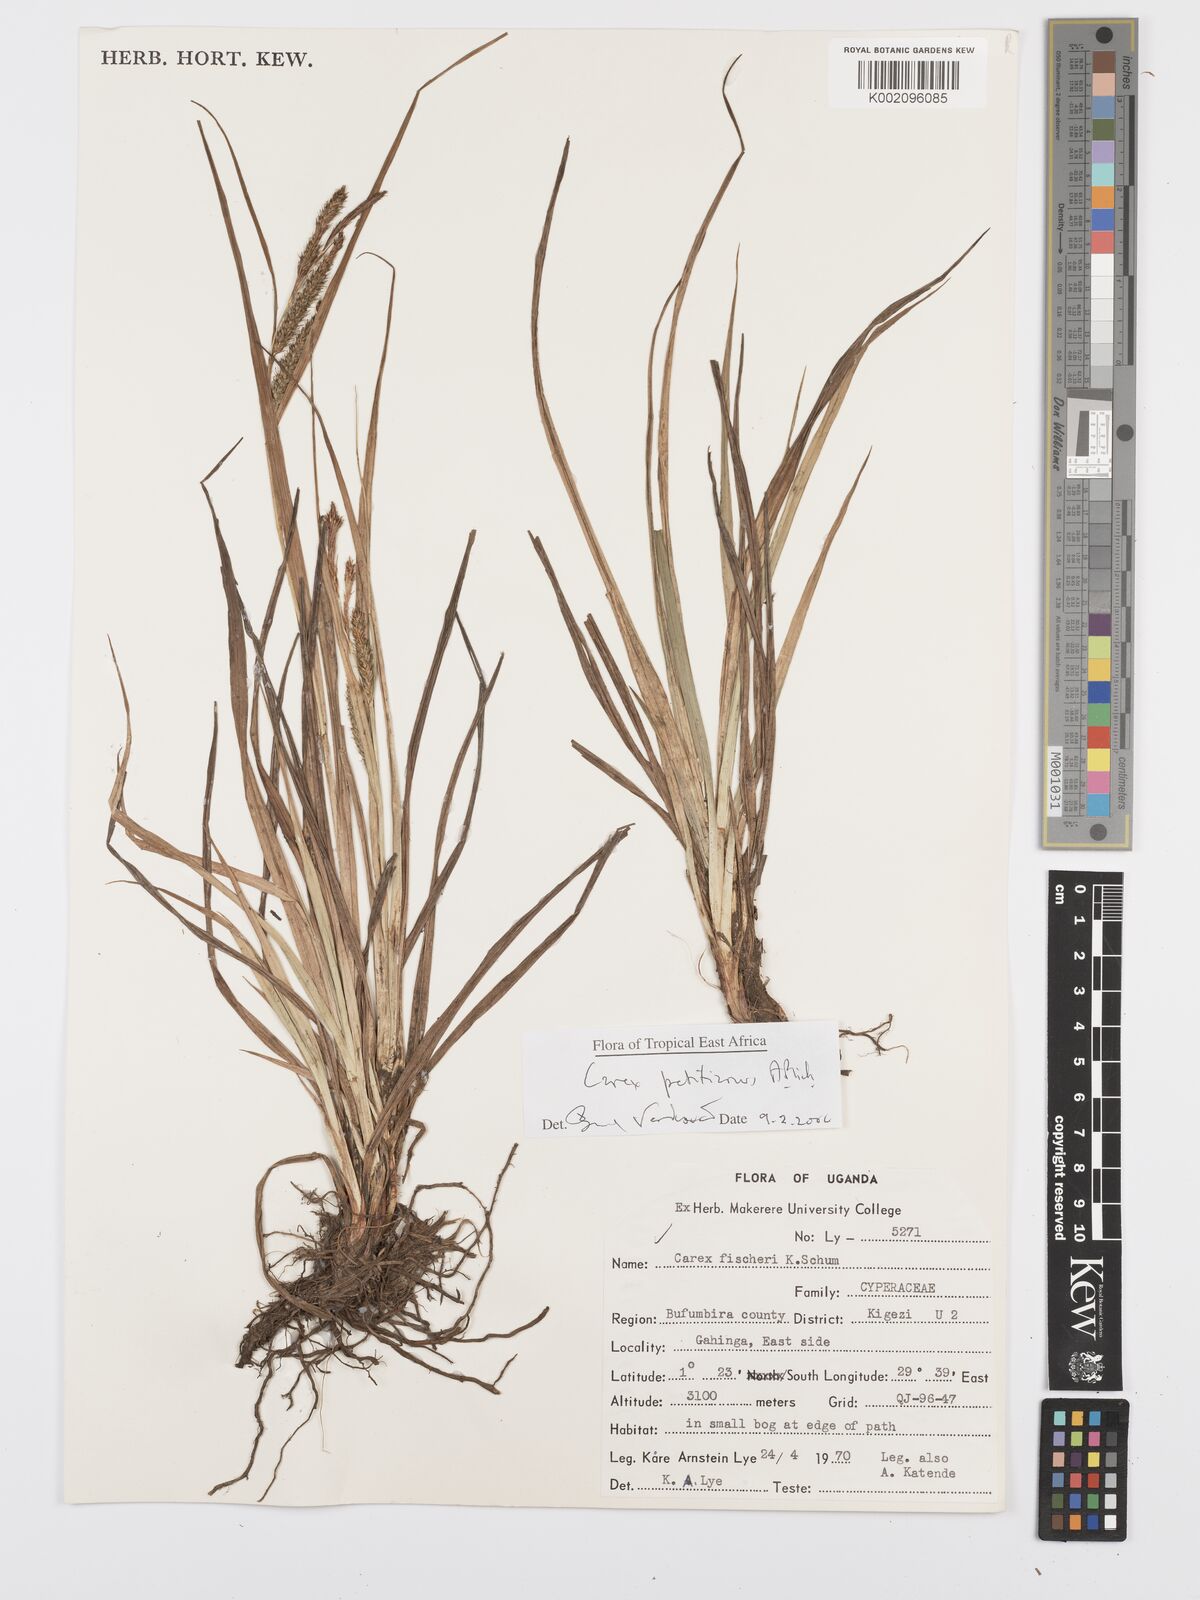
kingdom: Plantae
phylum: Tracheophyta
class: Liliopsida
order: Poales
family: Cyperaceae
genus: Carex
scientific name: Carex fischeri
